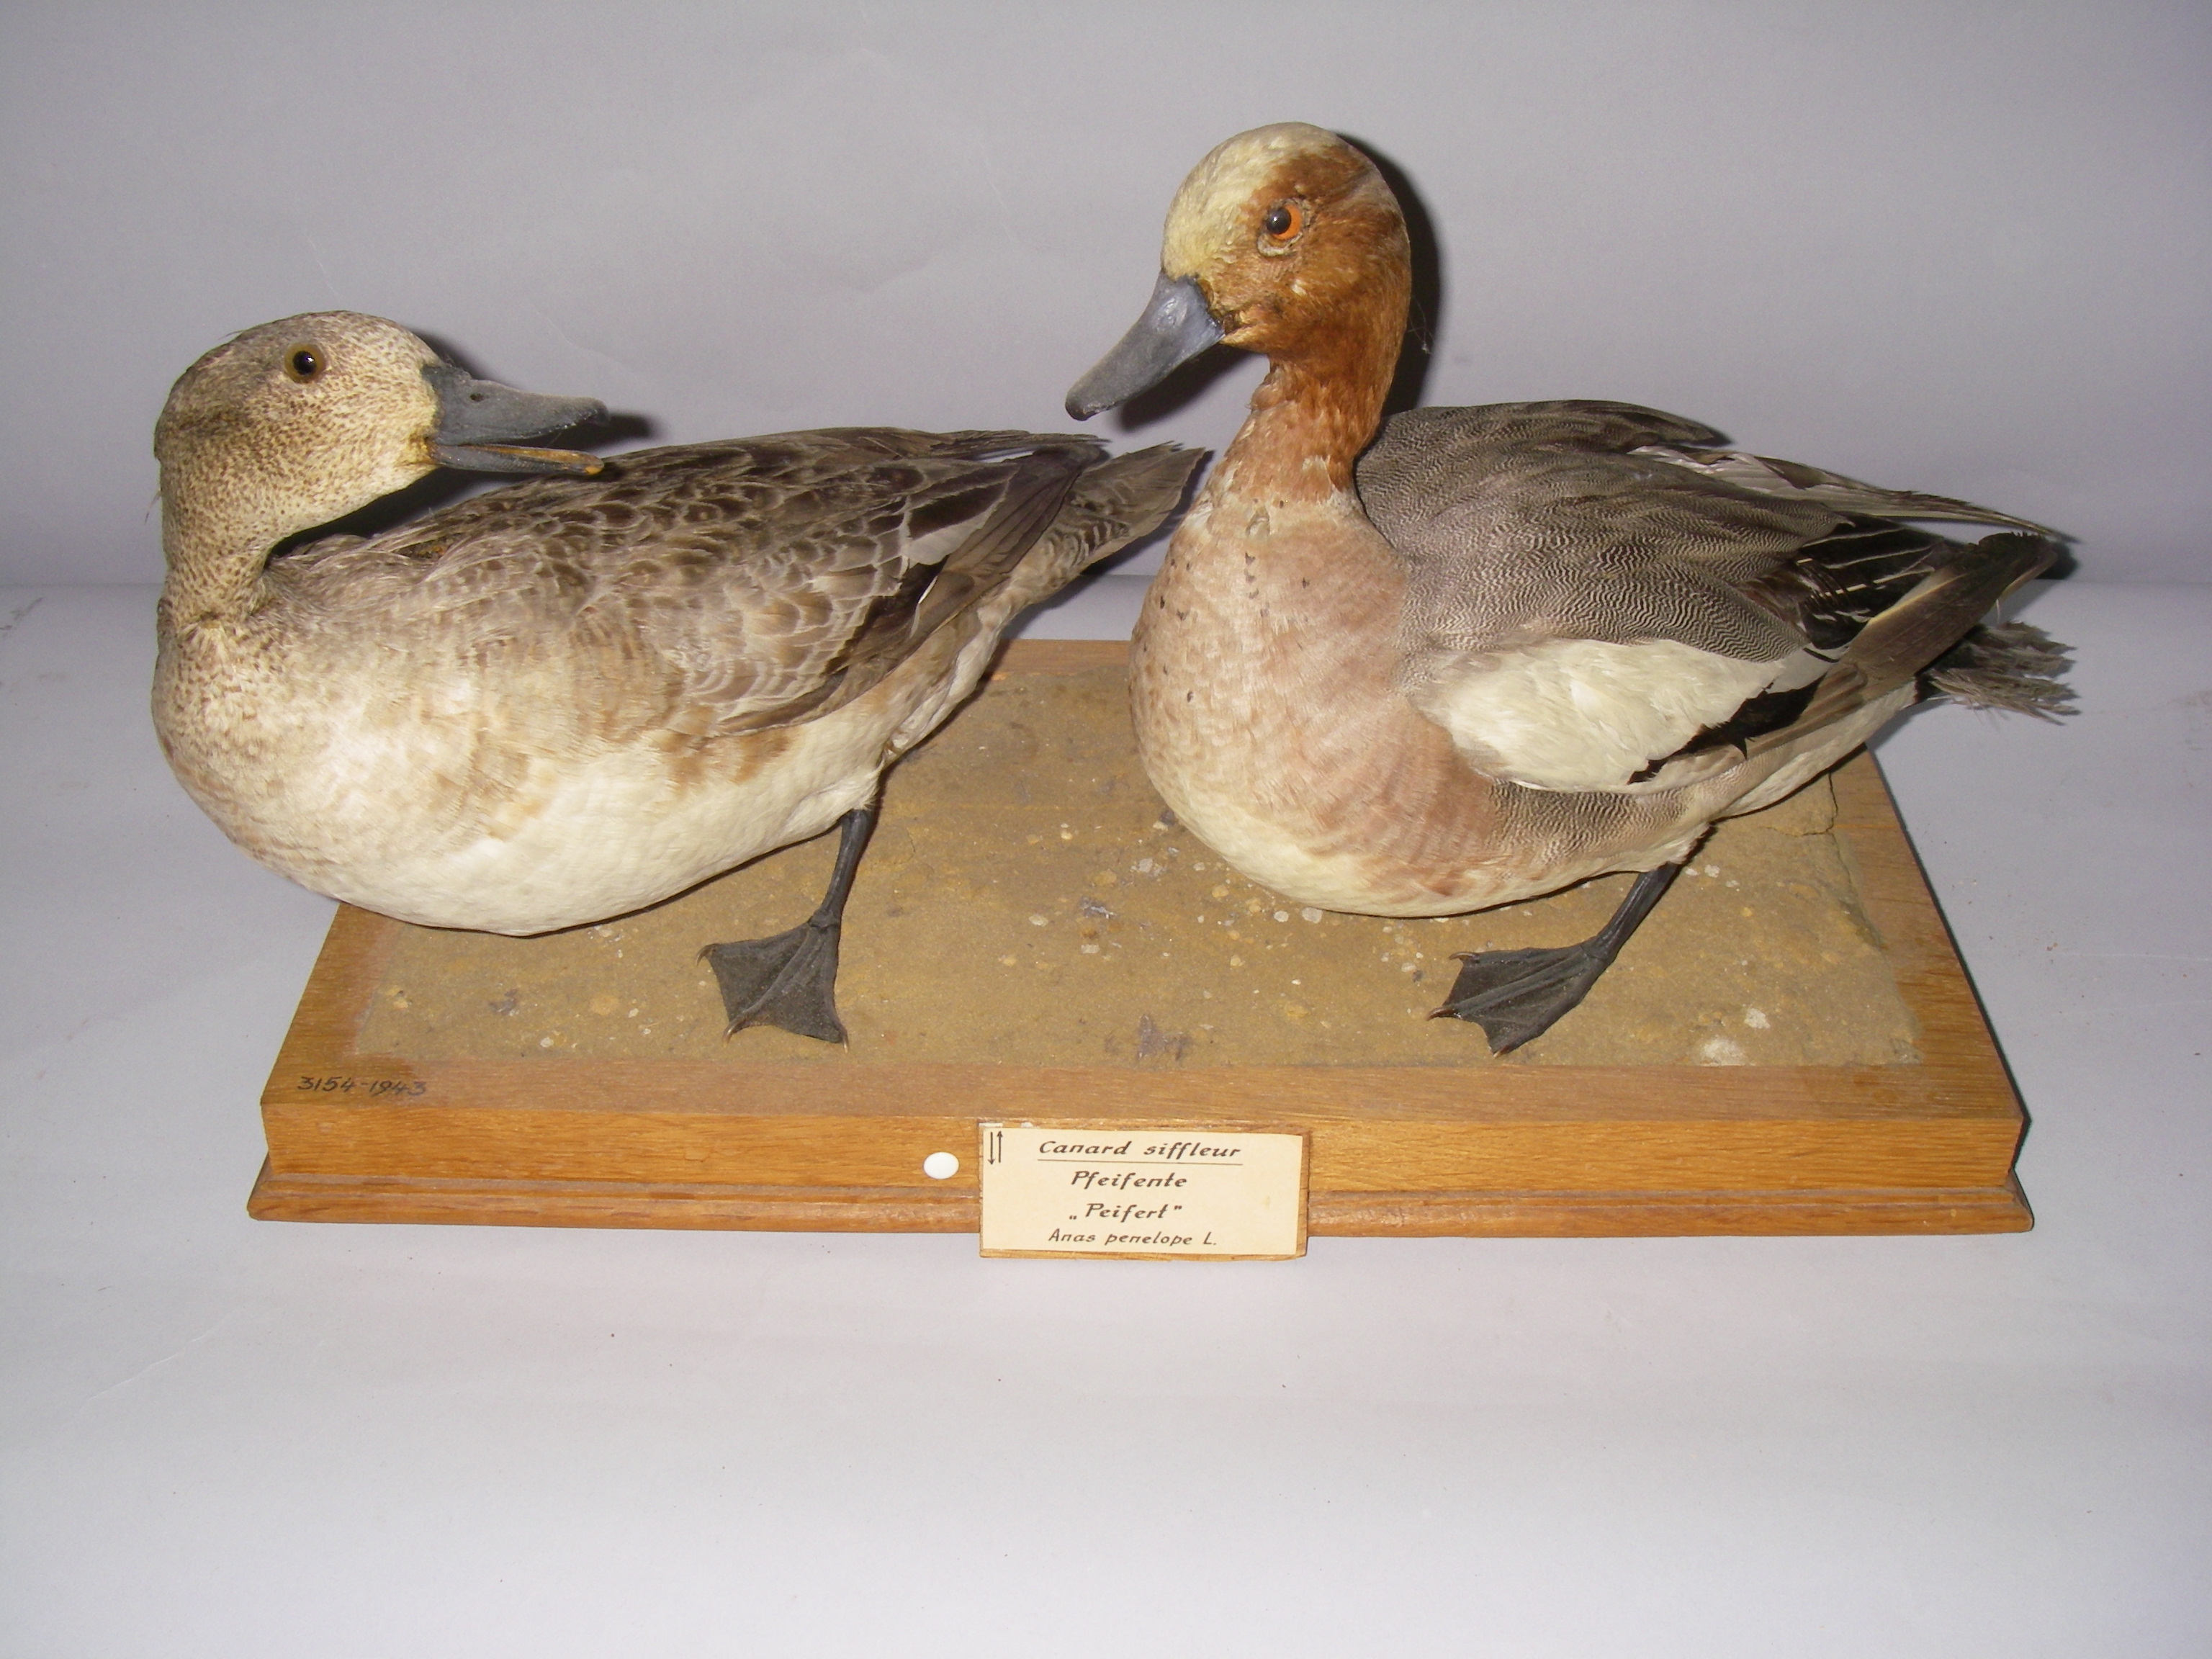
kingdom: Animalia
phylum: Chordata
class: Aves
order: Anseriformes
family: Anatidae
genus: Mareca
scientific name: Mareca penelope
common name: Eurasian wigeon
